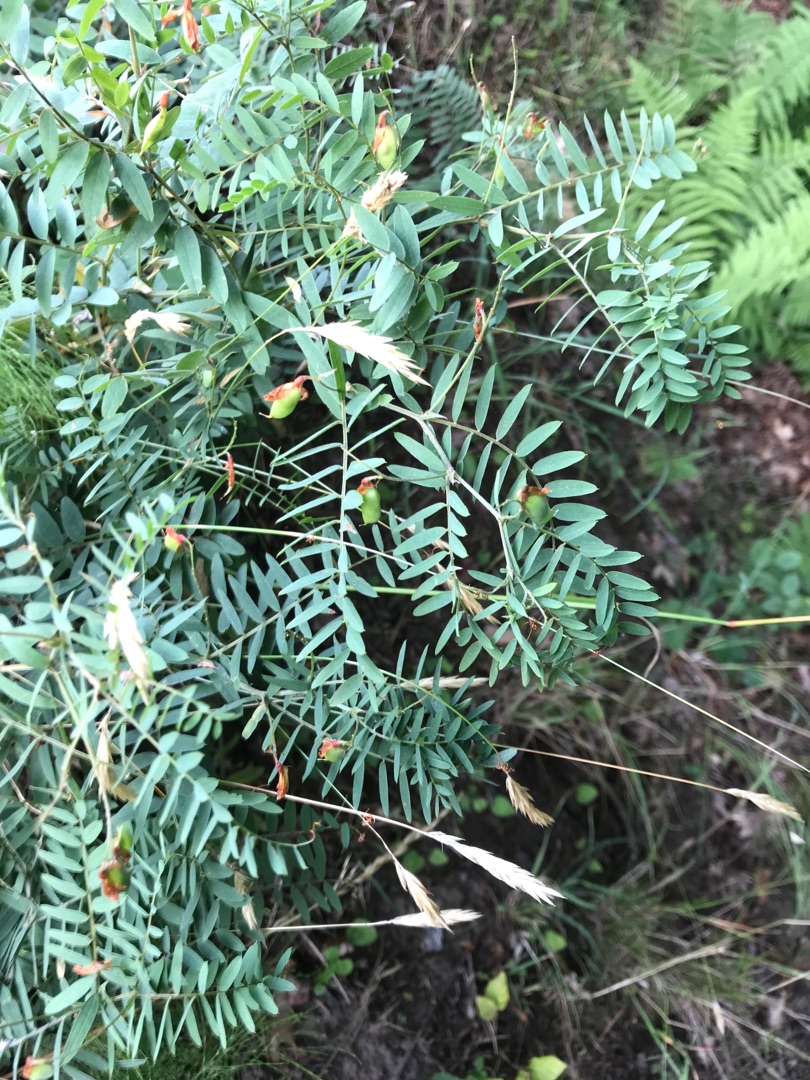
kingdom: Plantae
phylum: Tracheophyta
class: Magnoliopsida
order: Fabales
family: Fabaceae
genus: Vicia
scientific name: Vicia cassubica
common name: Kassubisk vikke
